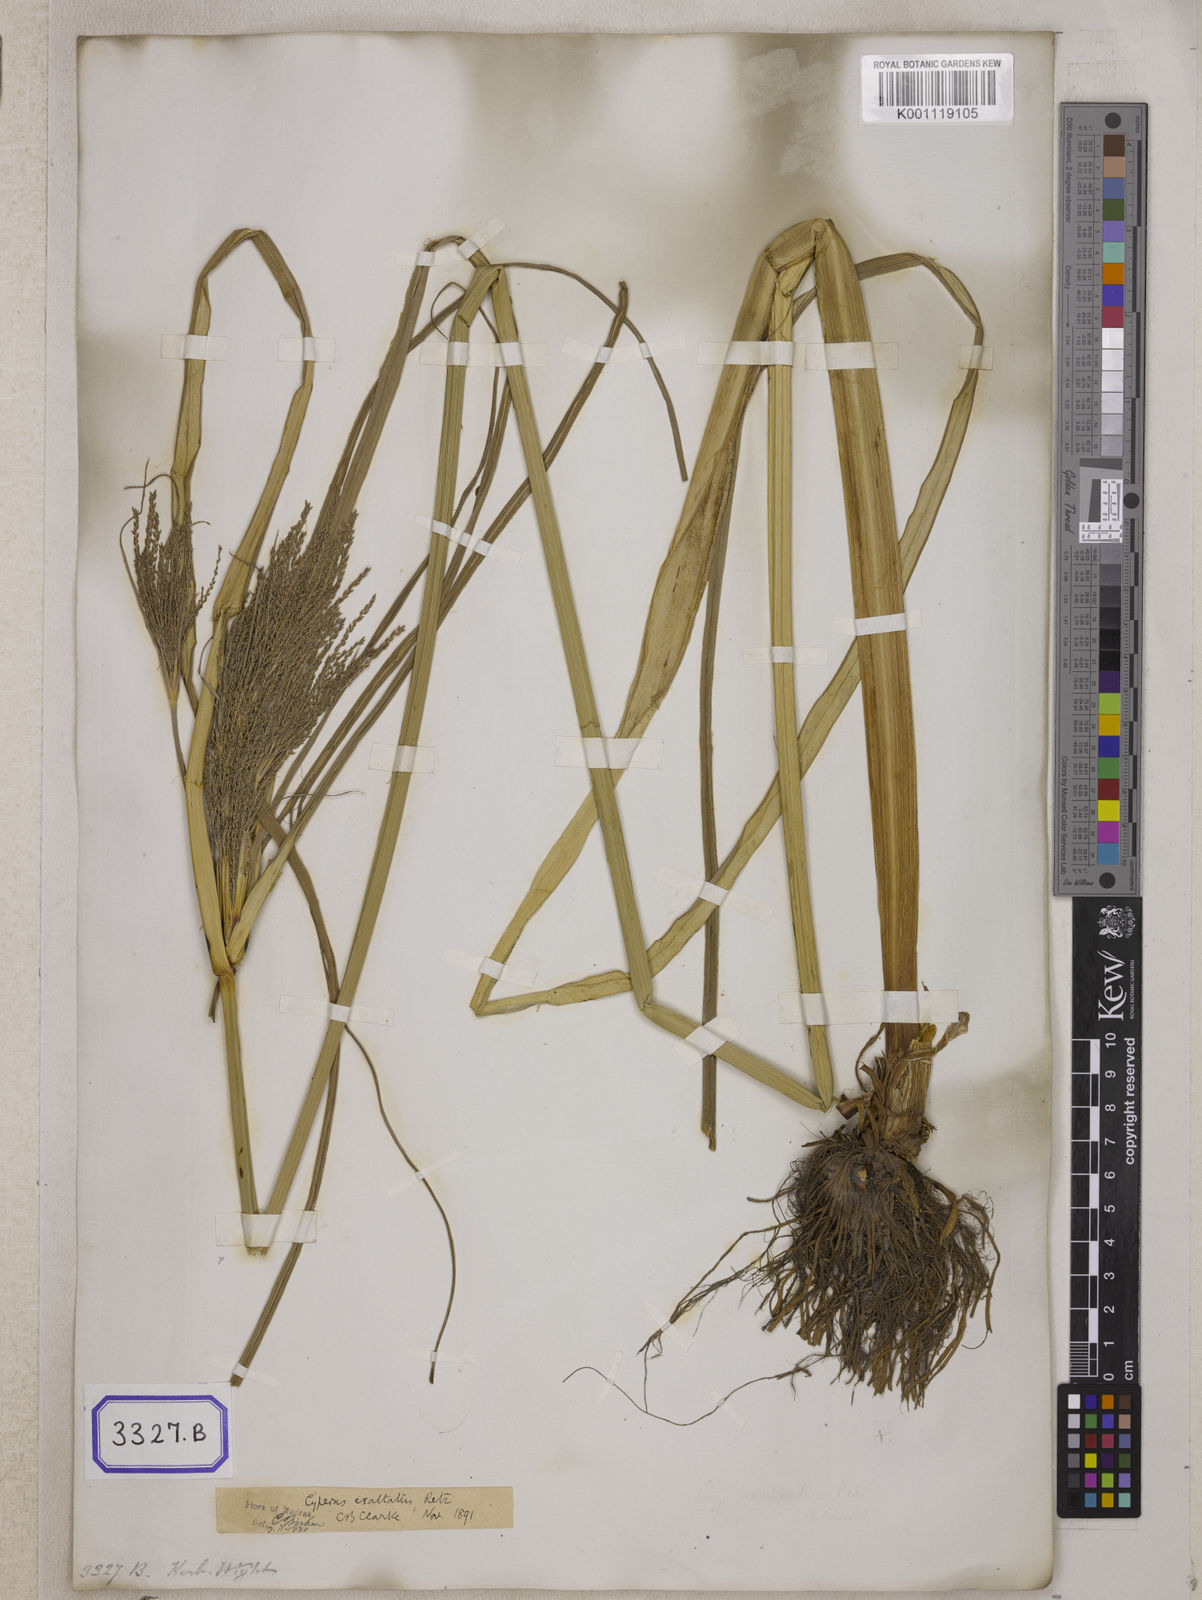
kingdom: Plantae
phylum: Tracheophyta
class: Liliopsida
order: Poales
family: Cyperaceae
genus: Cyperus
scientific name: Cyperus
